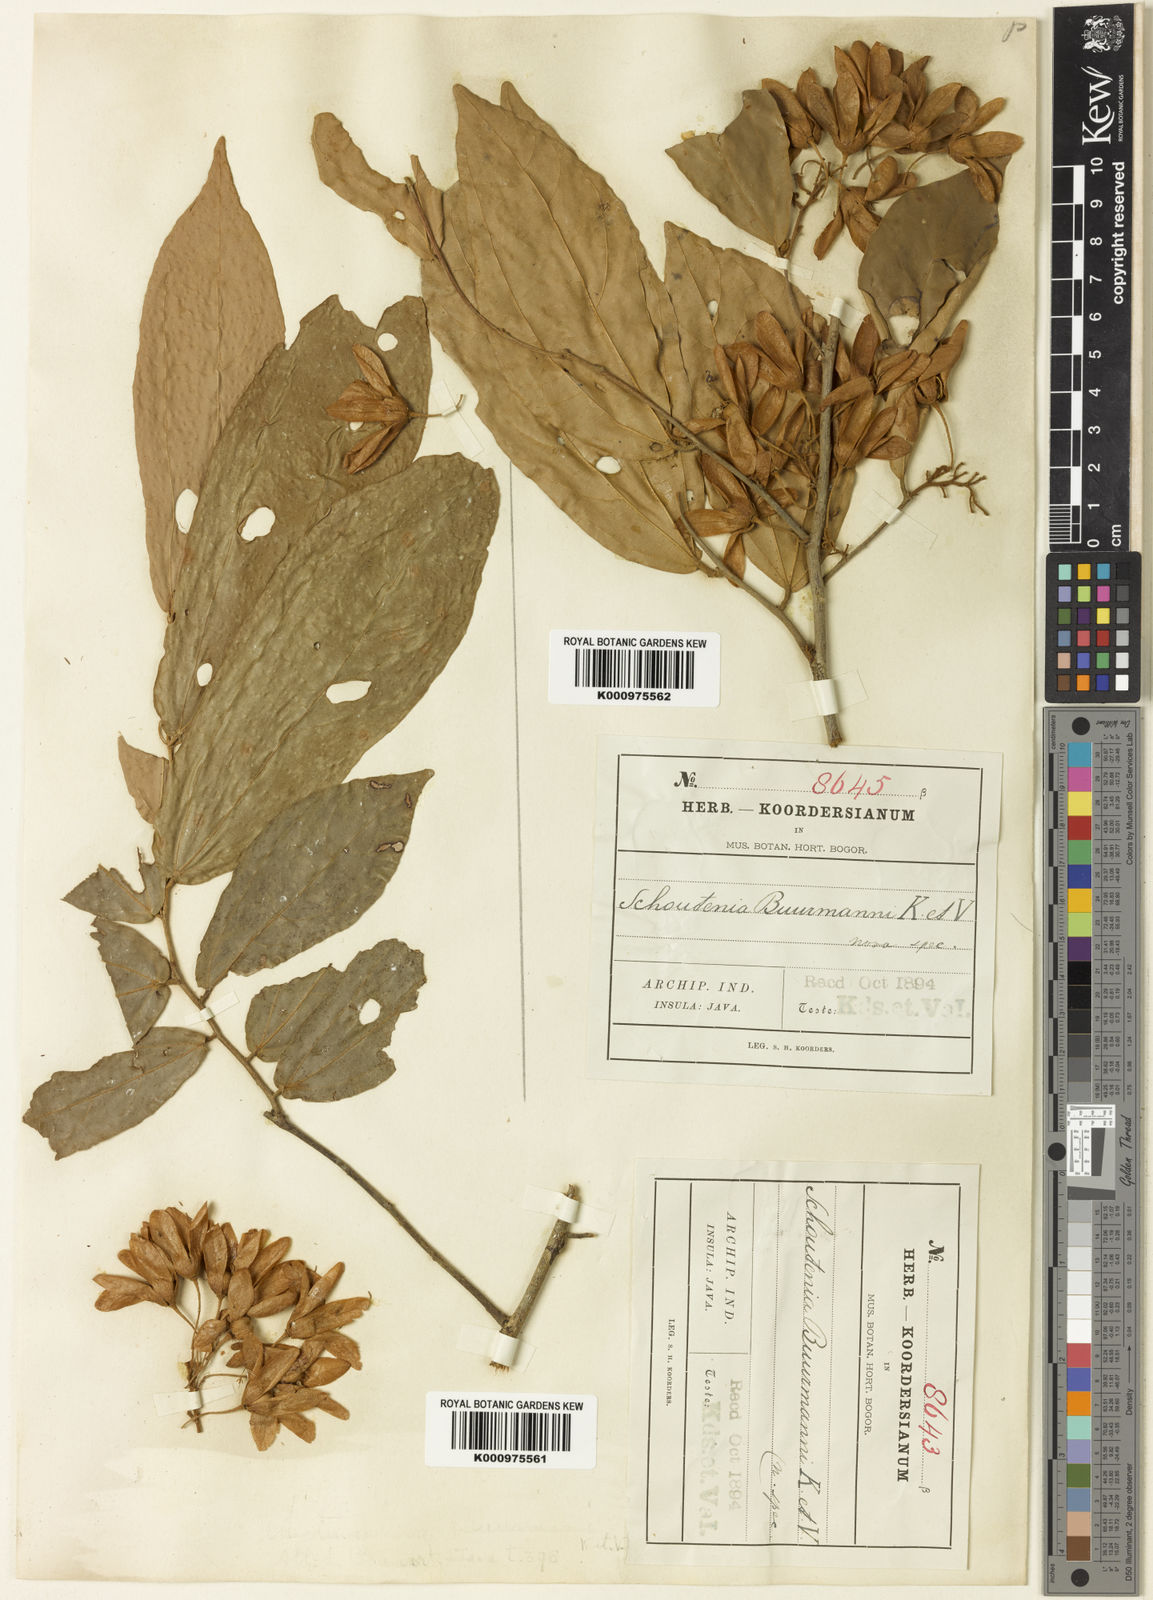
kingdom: Plantae
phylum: Tracheophyta
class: Magnoliopsida
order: Malvales
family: Malvaceae
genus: Schoutenia
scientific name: Schoutenia kunstleri
